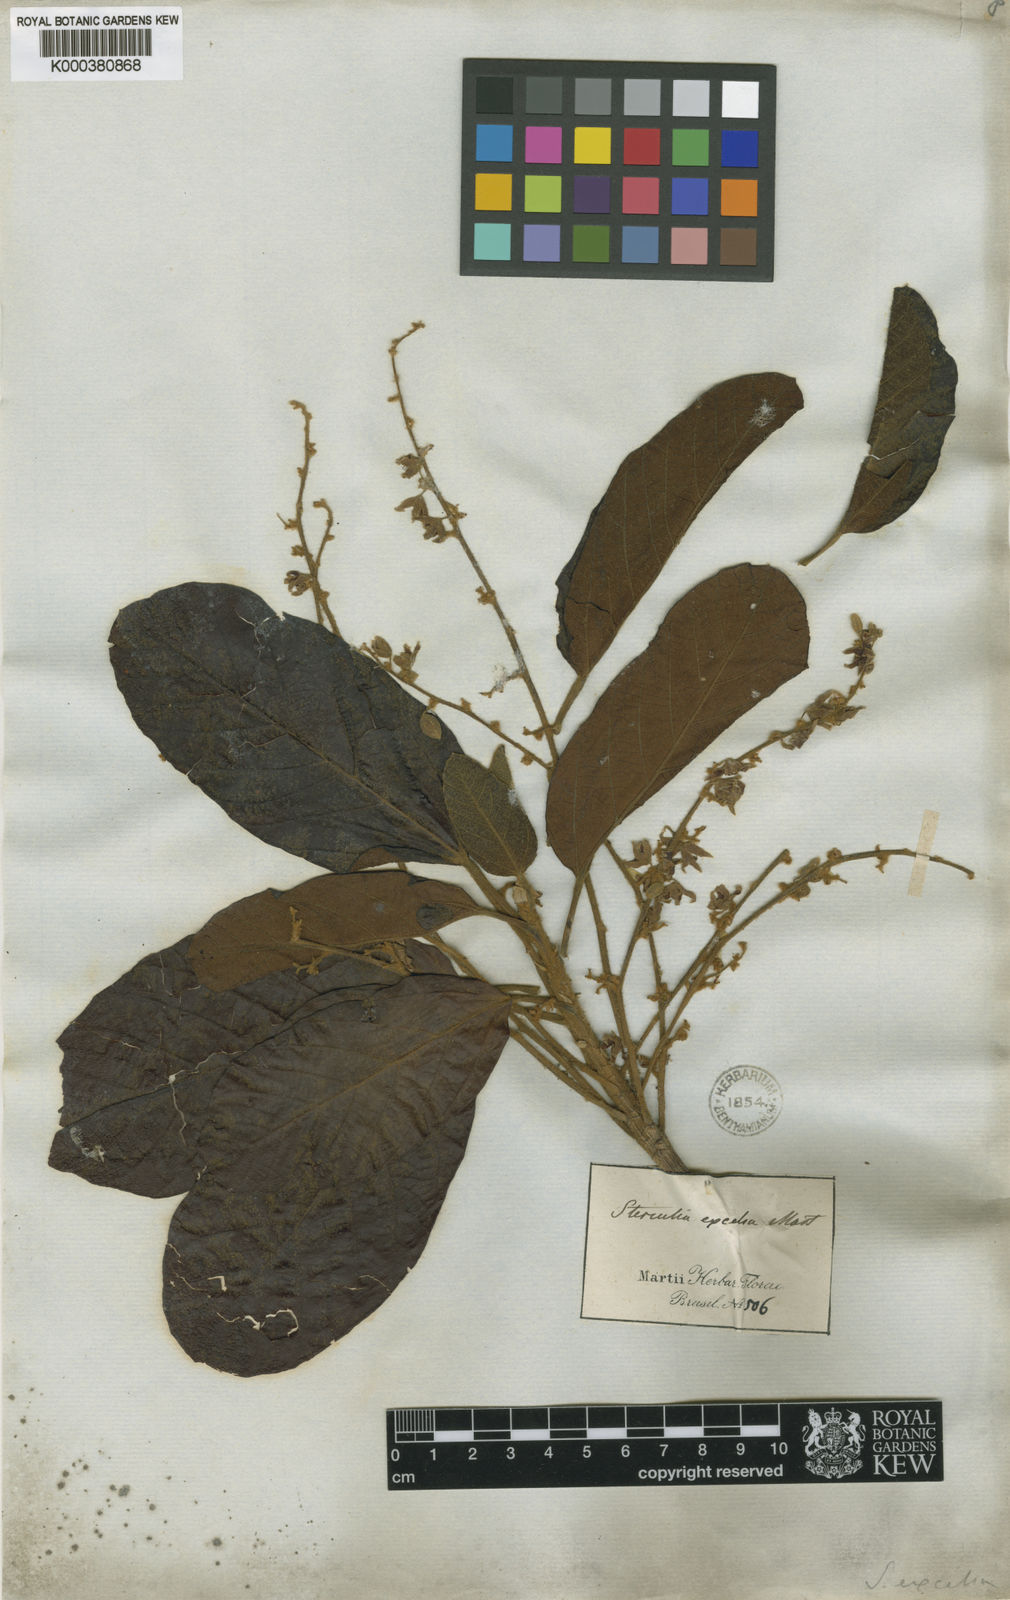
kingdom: Plantae
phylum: Tracheophyta
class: Magnoliopsida
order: Malvales
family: Malvaceae
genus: Sterculia
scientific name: Sterculia excelsa
